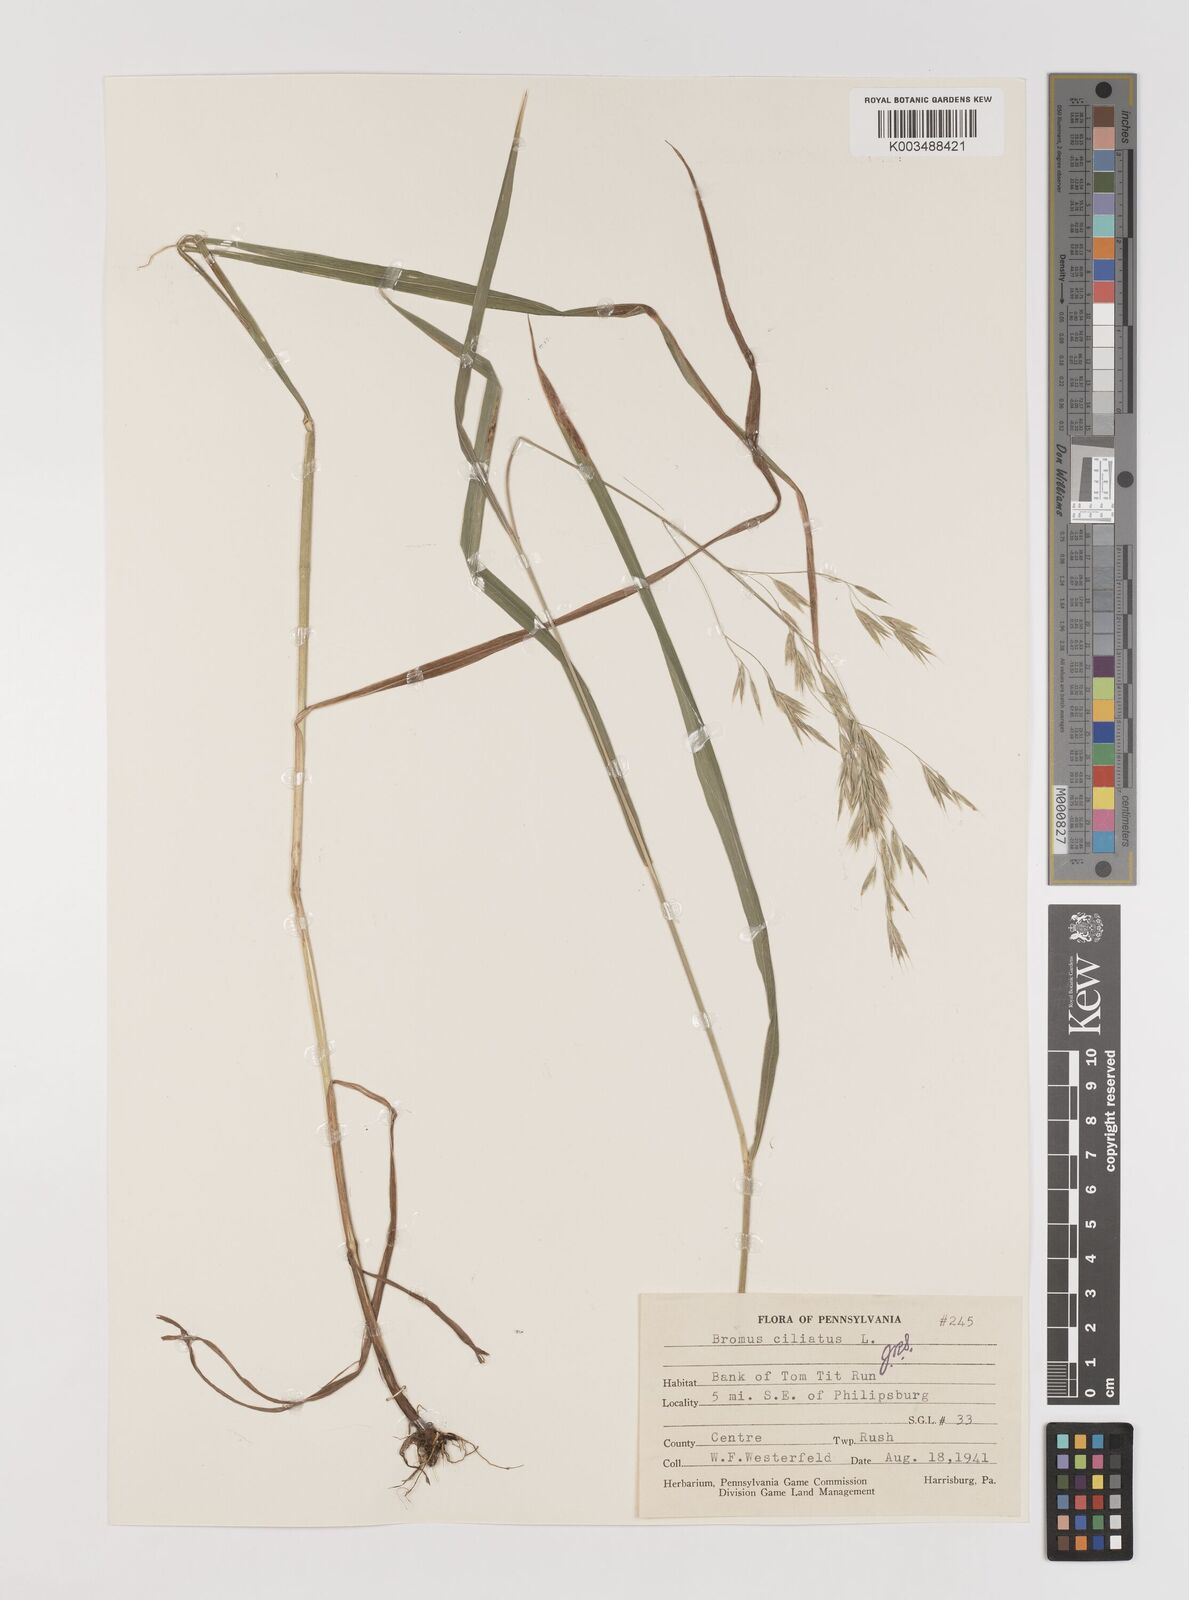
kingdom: Plantae
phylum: Tracheophyta
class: Liliopsida
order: Poales
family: Poaceae
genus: Bromus
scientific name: Bromus ciliatus
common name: Fringe brome
